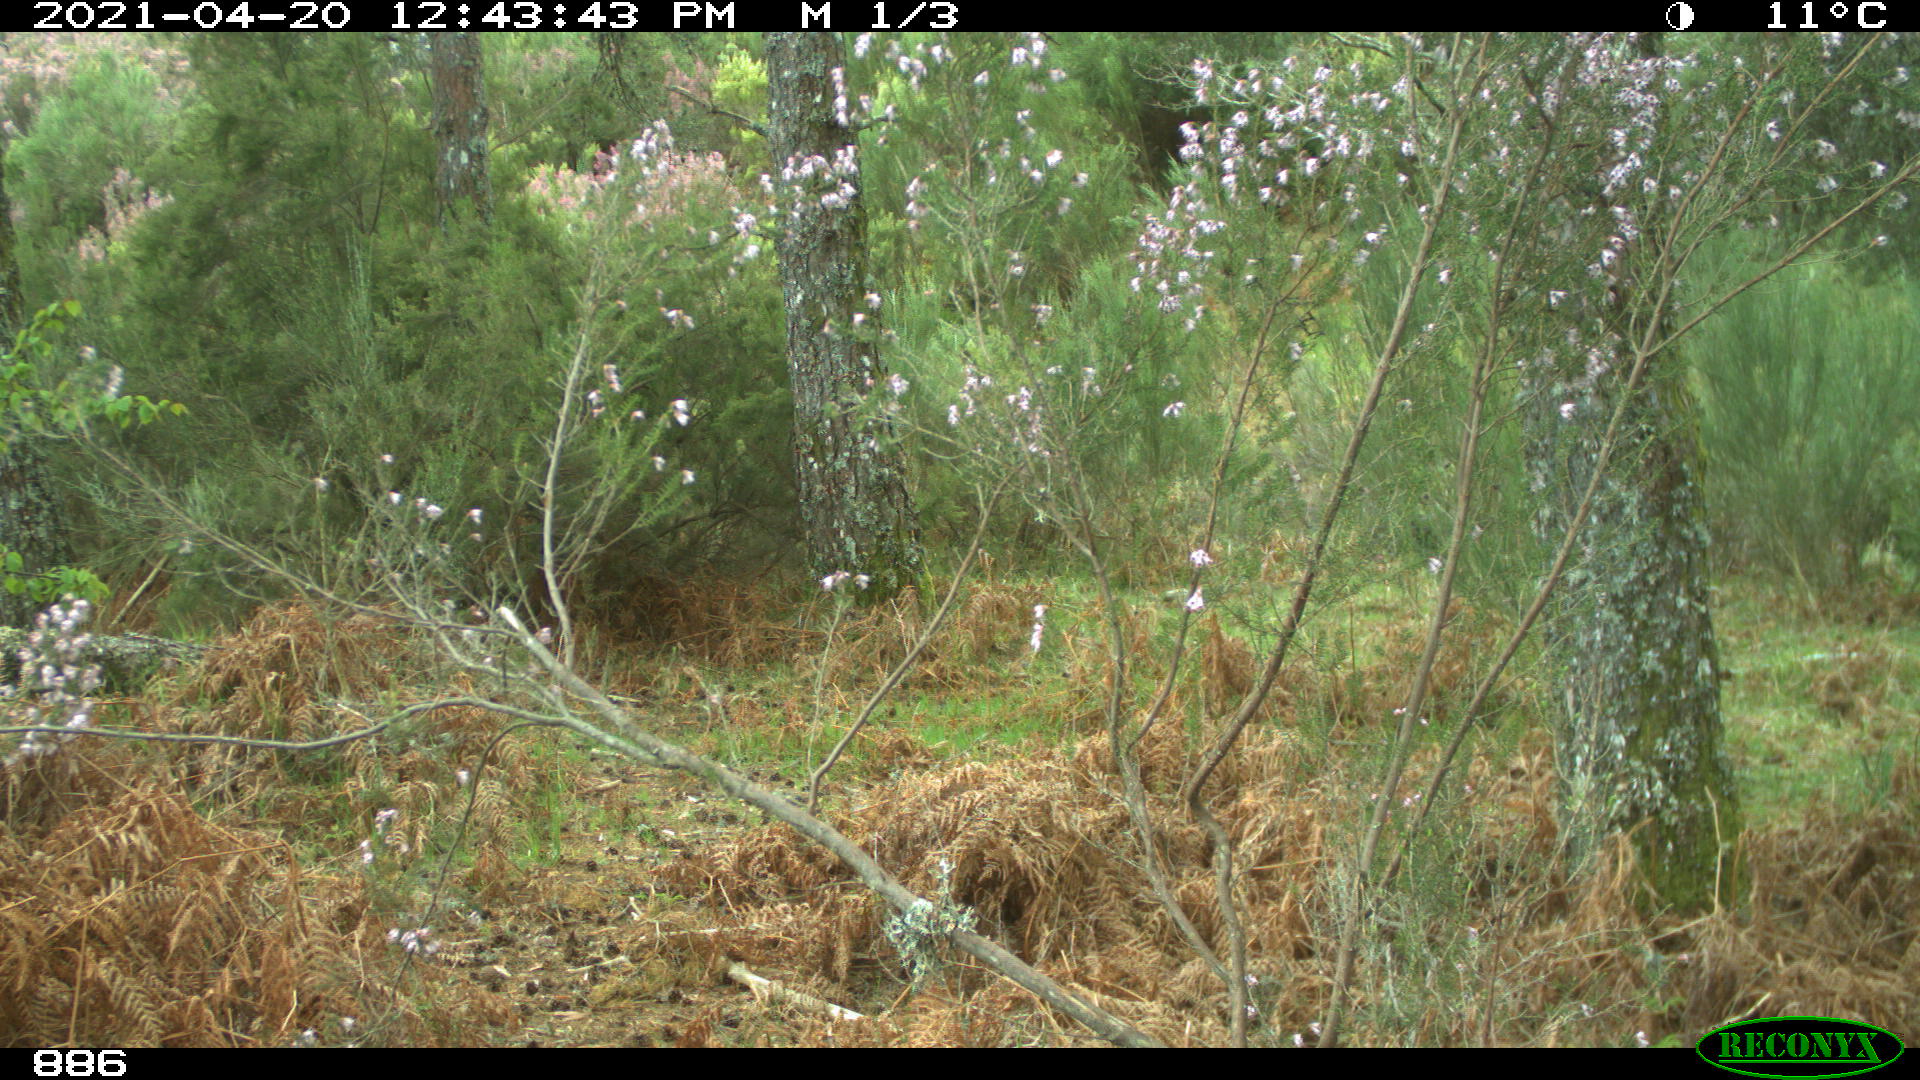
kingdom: Animalia
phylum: Chordata
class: Mammalia
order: Perissodactyla
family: Equidae
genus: Equus
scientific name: Equus caballus
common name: Horse
